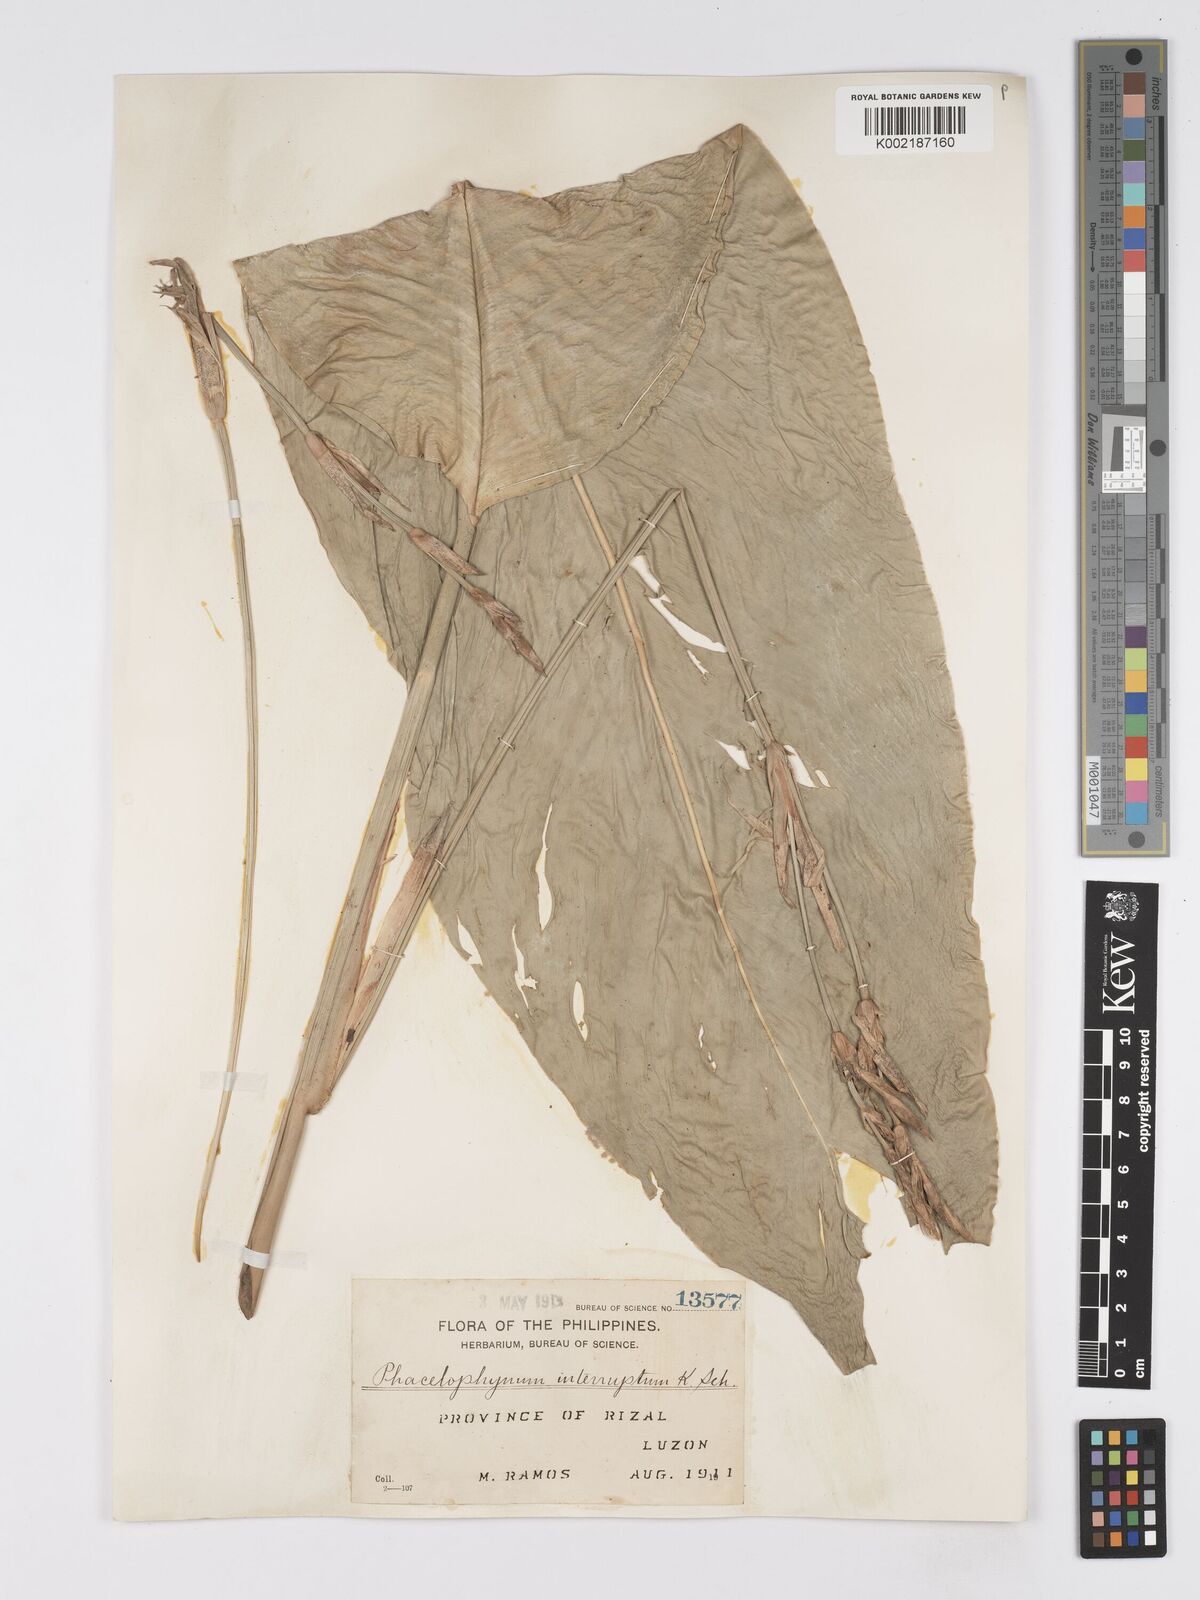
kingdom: Plantae
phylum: Tracheophyta
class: Liliopsida
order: Zingiberales
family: Marantaceae
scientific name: Marantaceae
